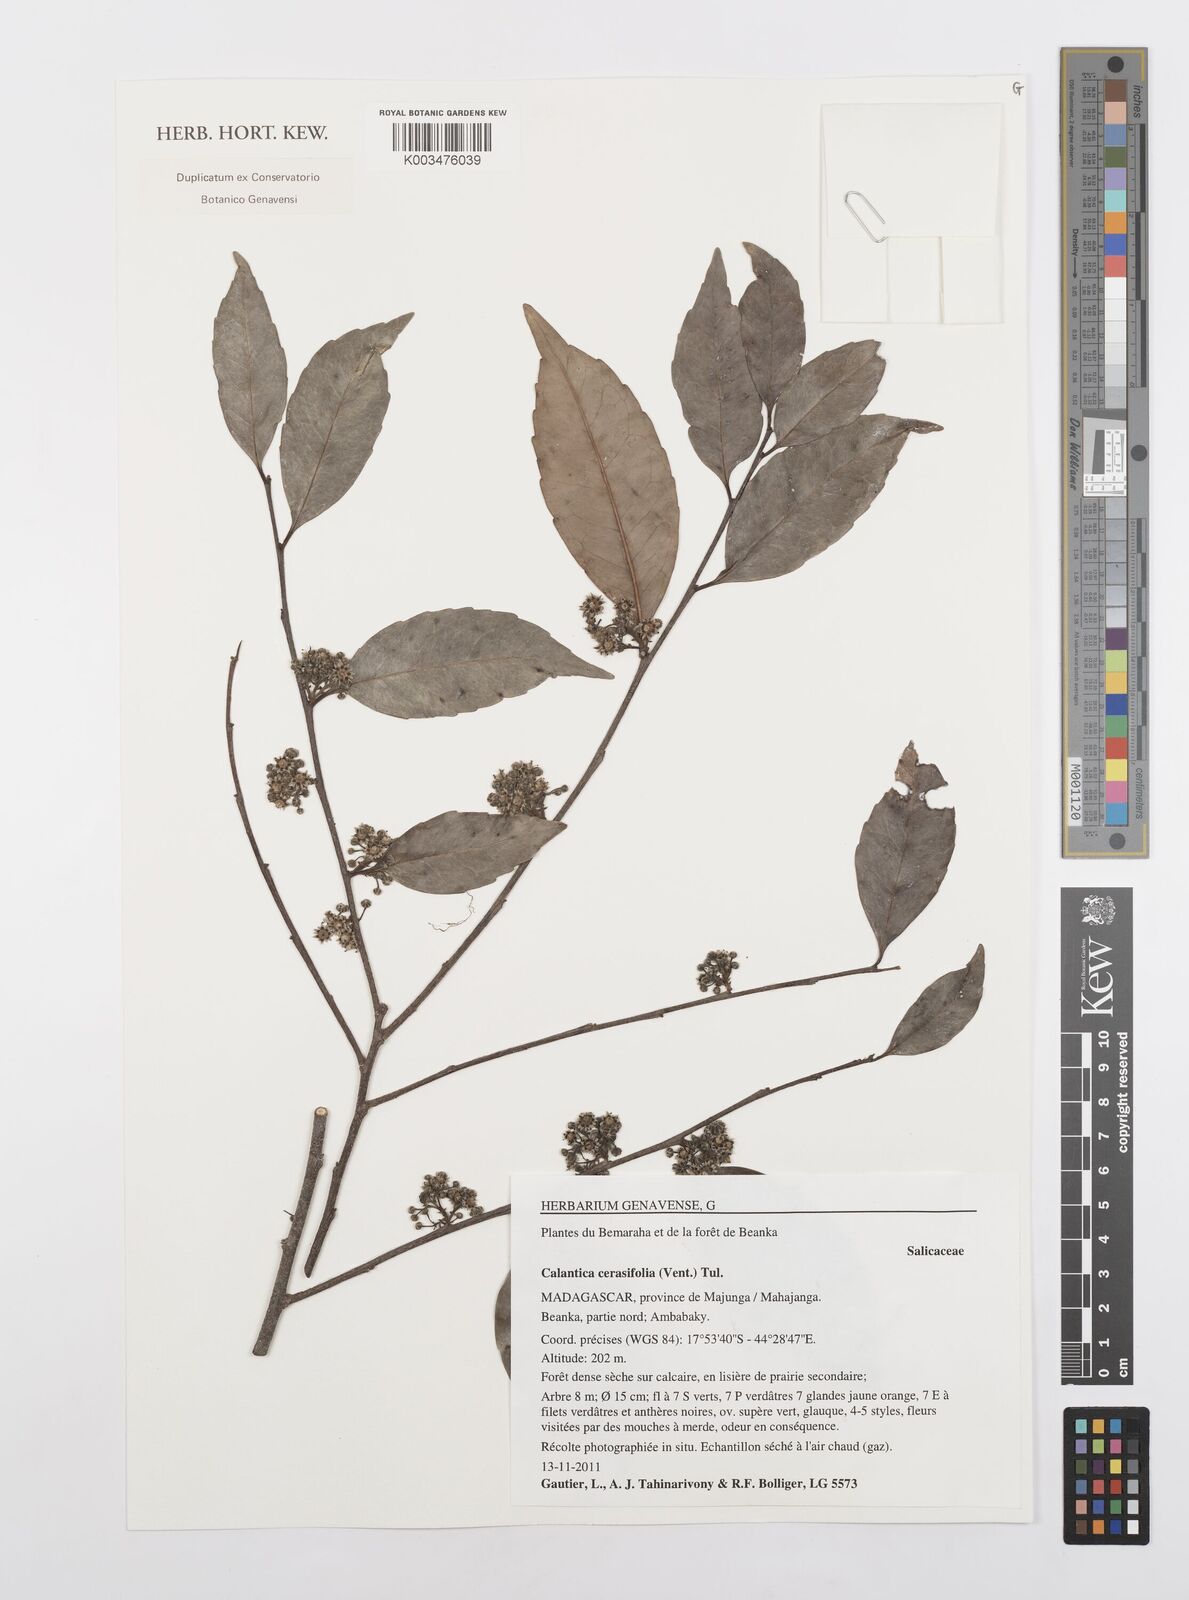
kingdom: Plantae
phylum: Tracheophyta
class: Magnoliopsida
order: Malpighiales
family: Salicaceae
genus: Calantica
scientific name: Calantica cerasifolia
